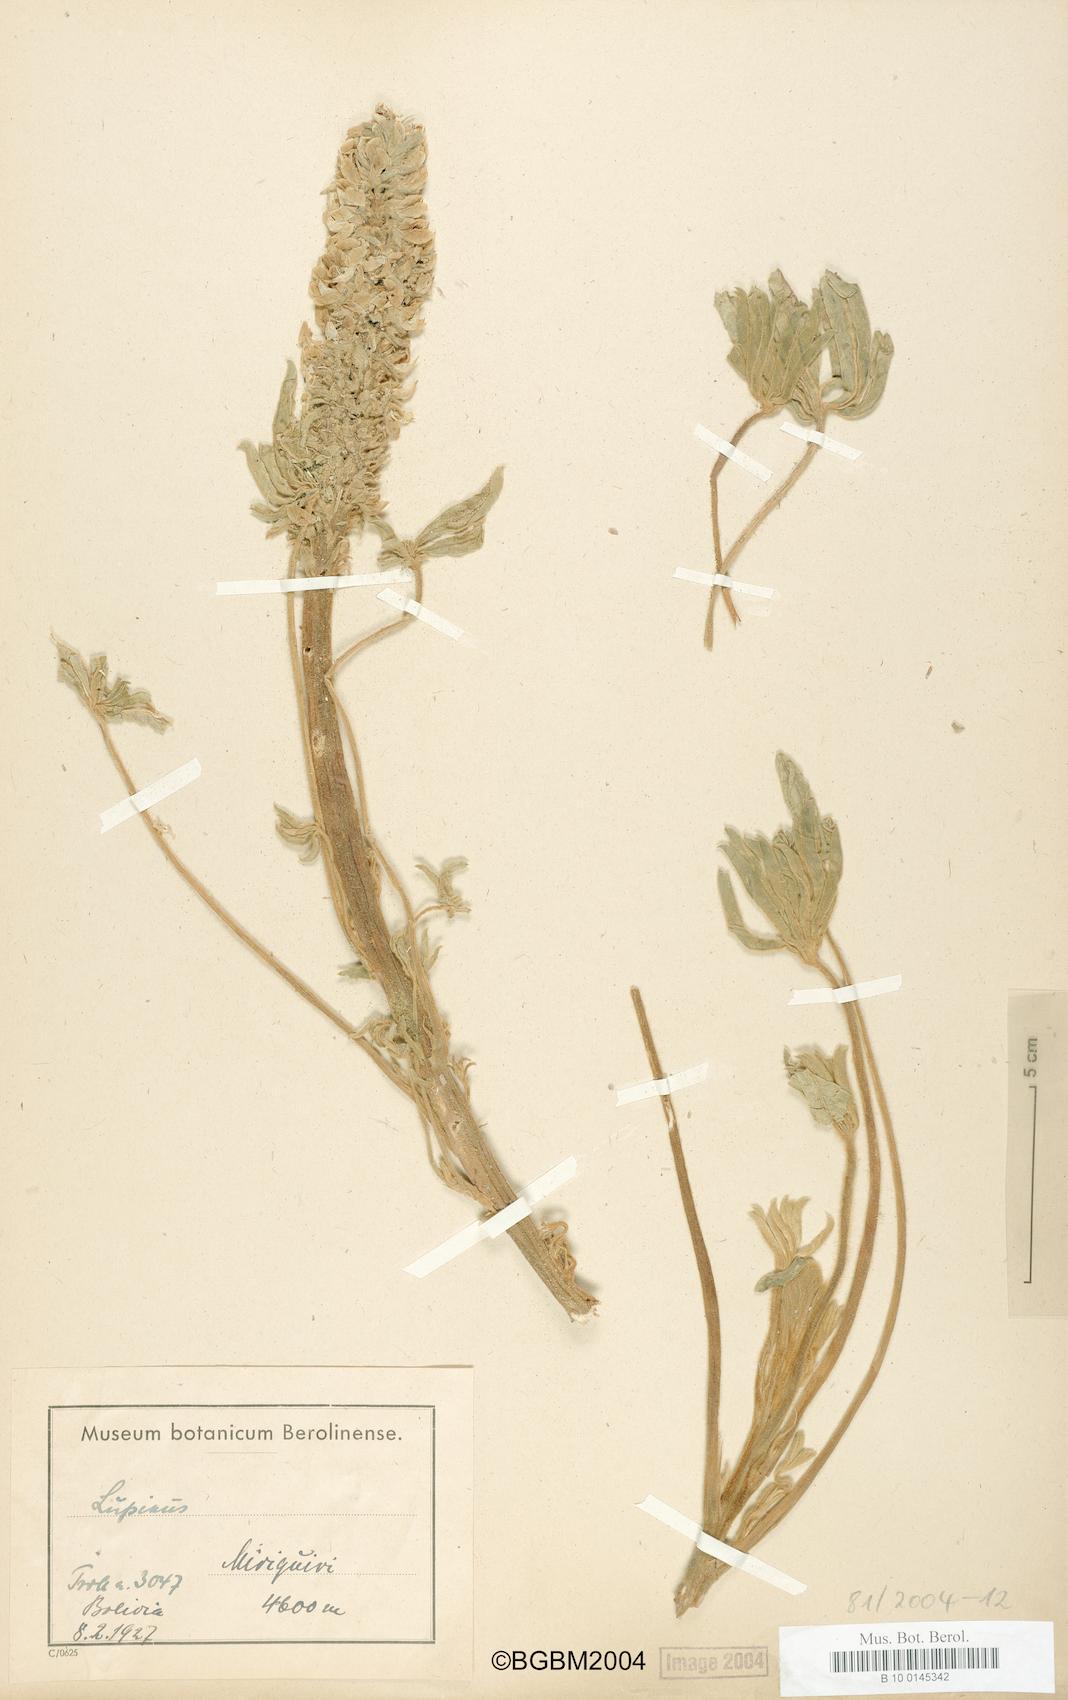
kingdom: Plantae
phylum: Tracheophyta
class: Magnoliopsida
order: Fabales
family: Fabaceae
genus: Lupinus
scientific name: Lupinus
